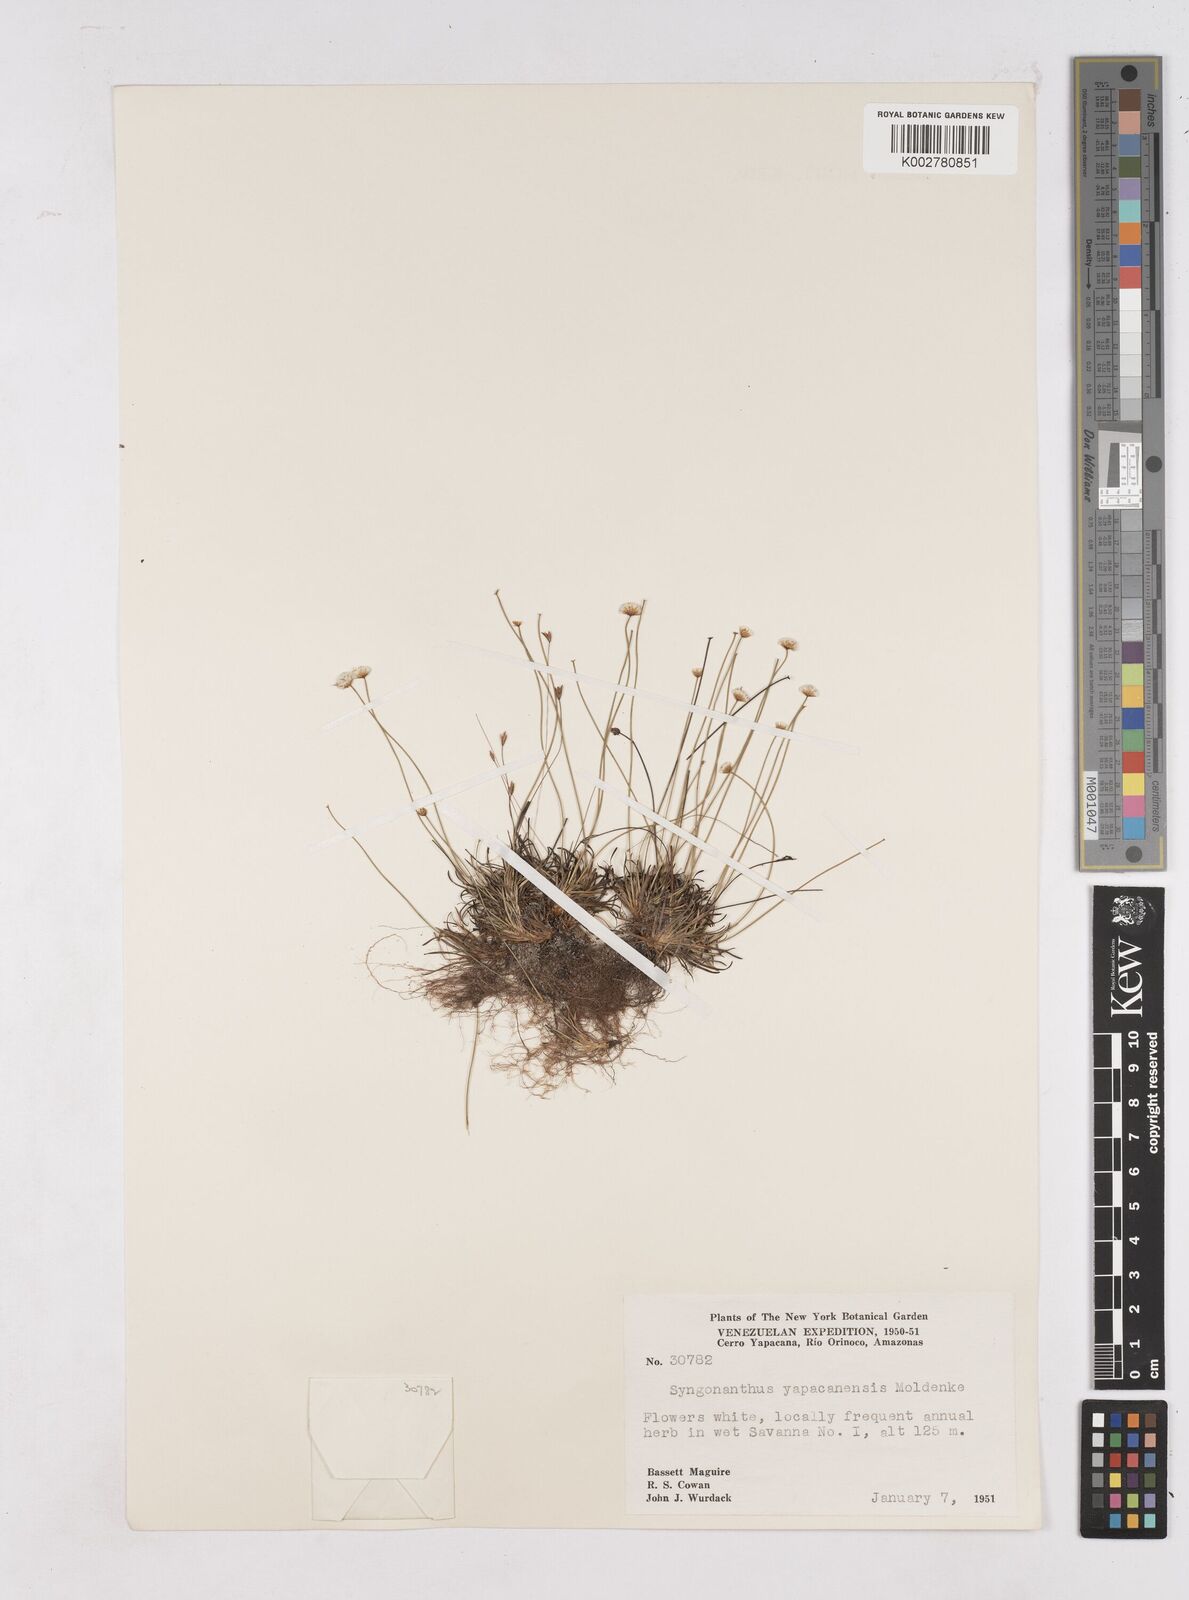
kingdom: Plantae
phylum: Tracheophyta
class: Liliopsida
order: Poales
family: Eriocaulaceae
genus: Paepalanthus
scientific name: Paepalanthus yapacanensis
